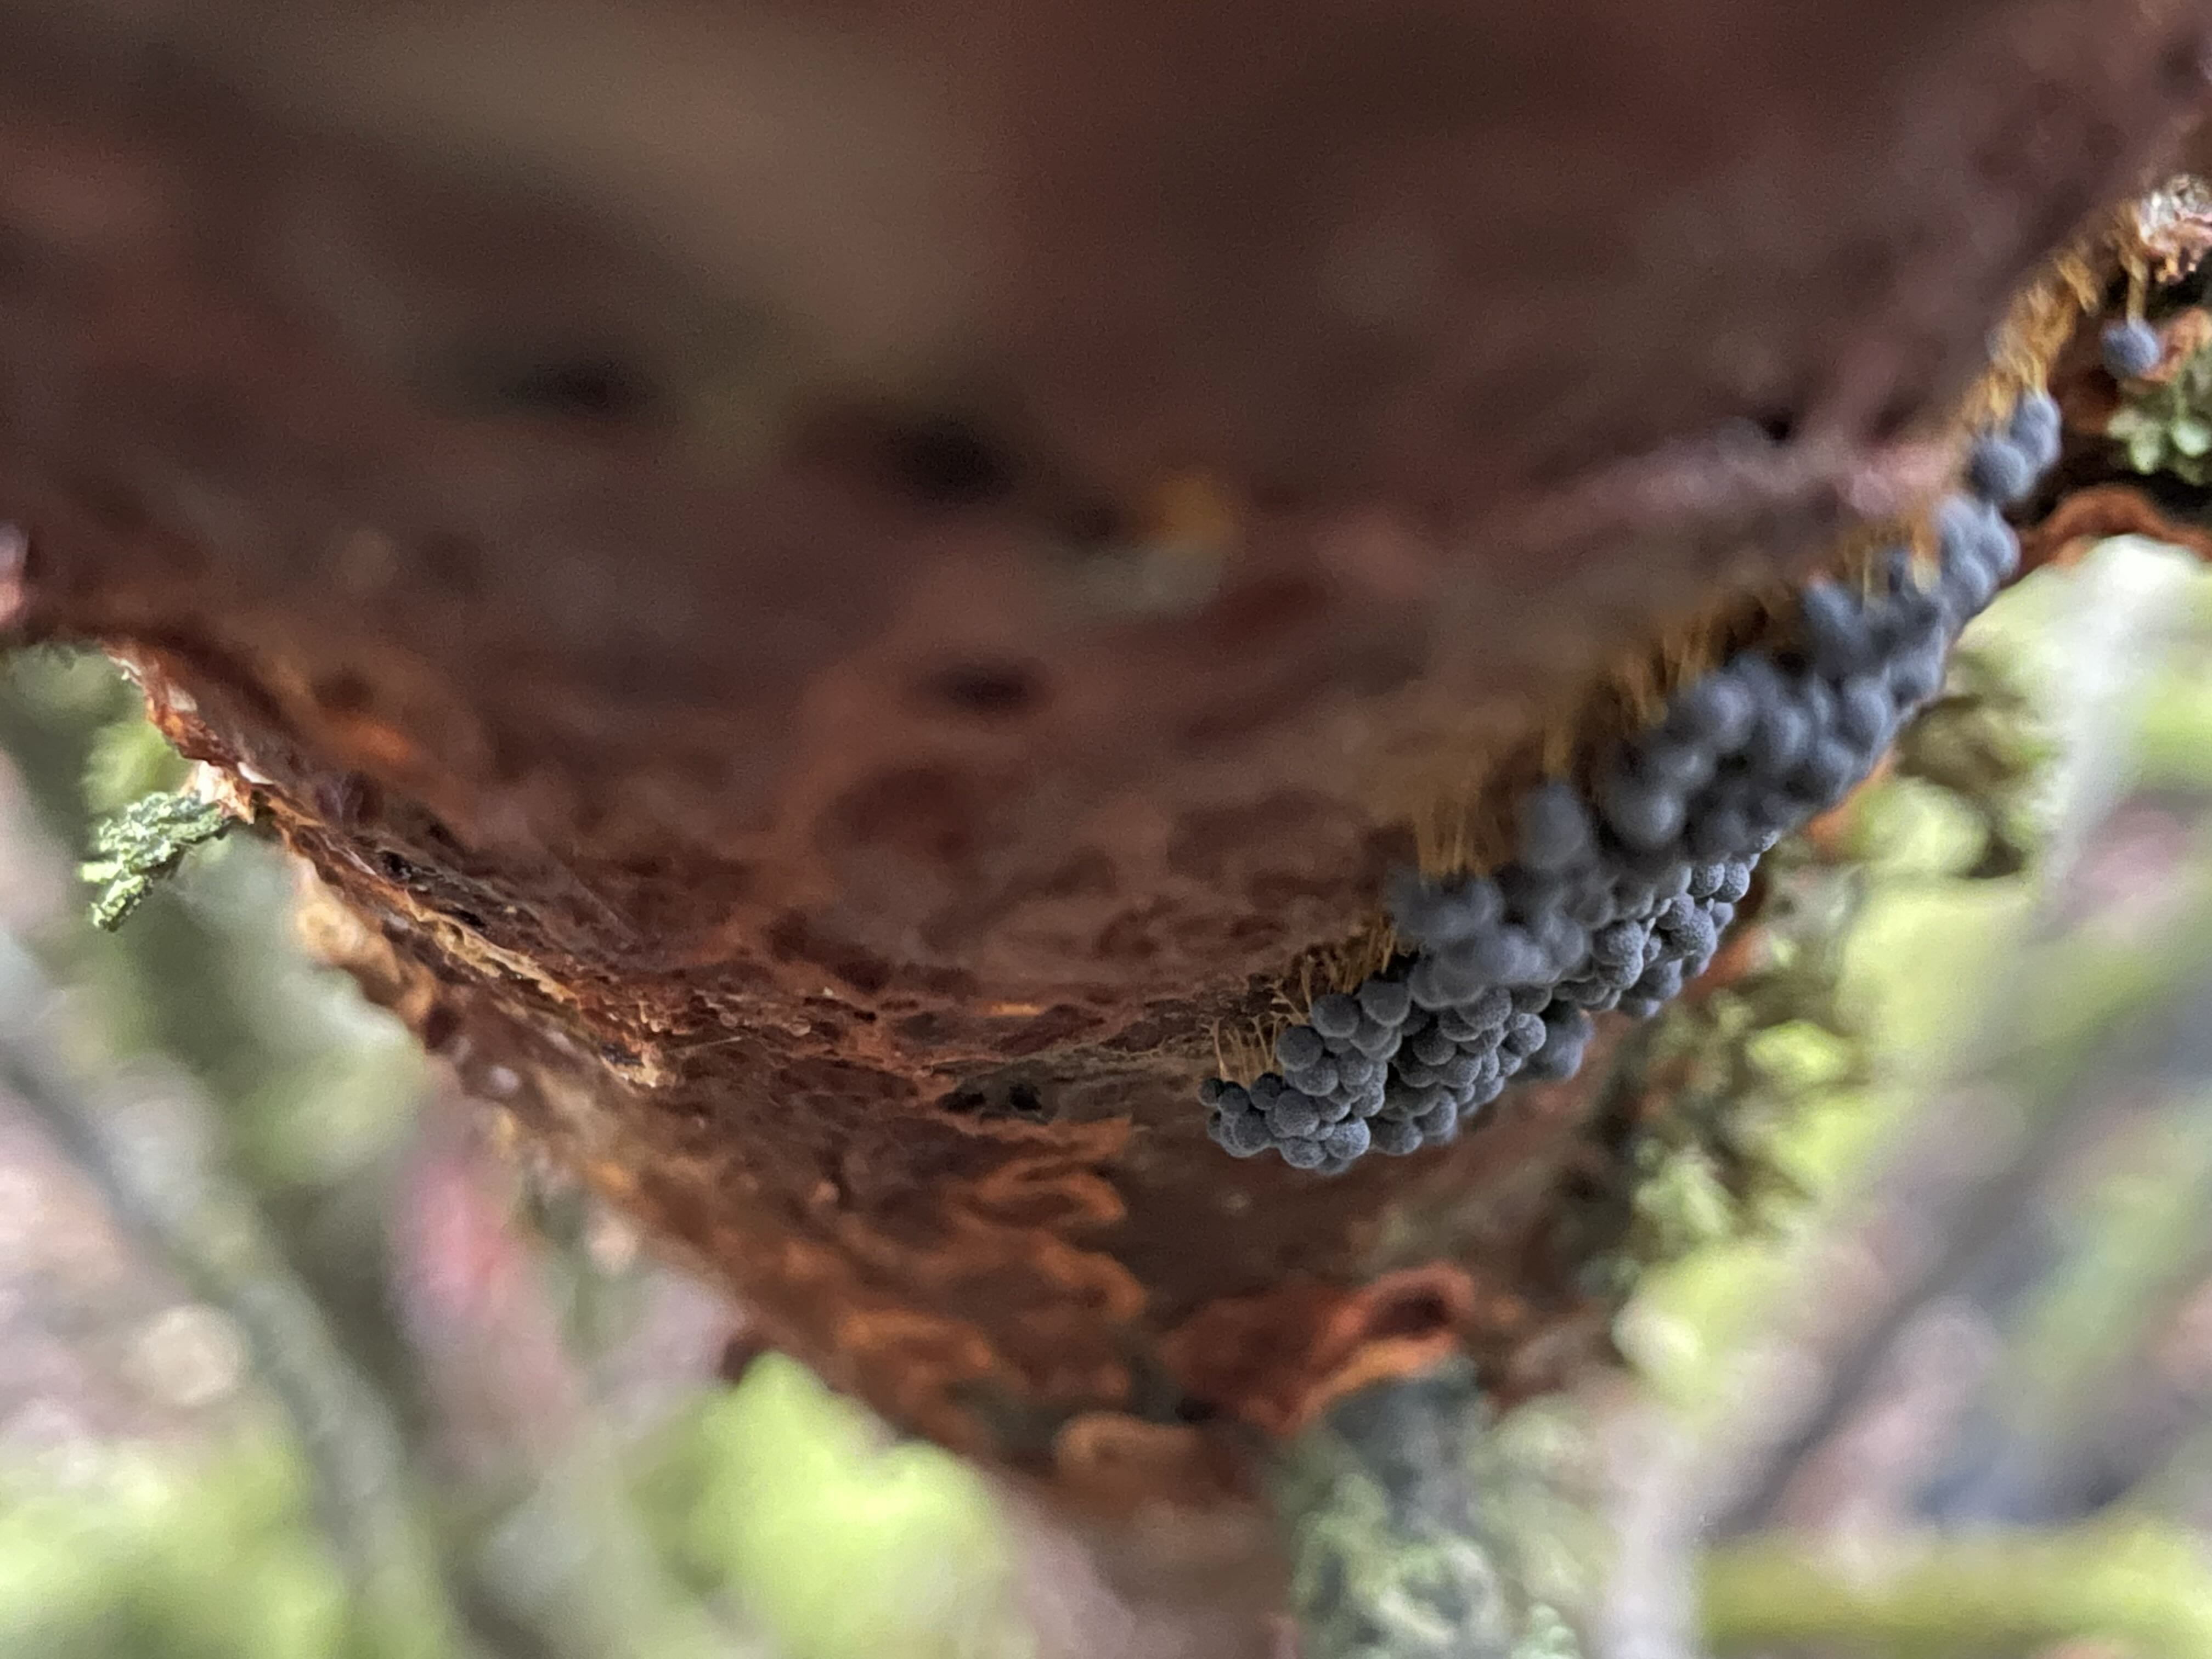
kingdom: Protozoa
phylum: Mycetozoa
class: Myxomycetes
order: Physarales
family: Physaraceae
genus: Badhamia
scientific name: Badhamia utricularis
